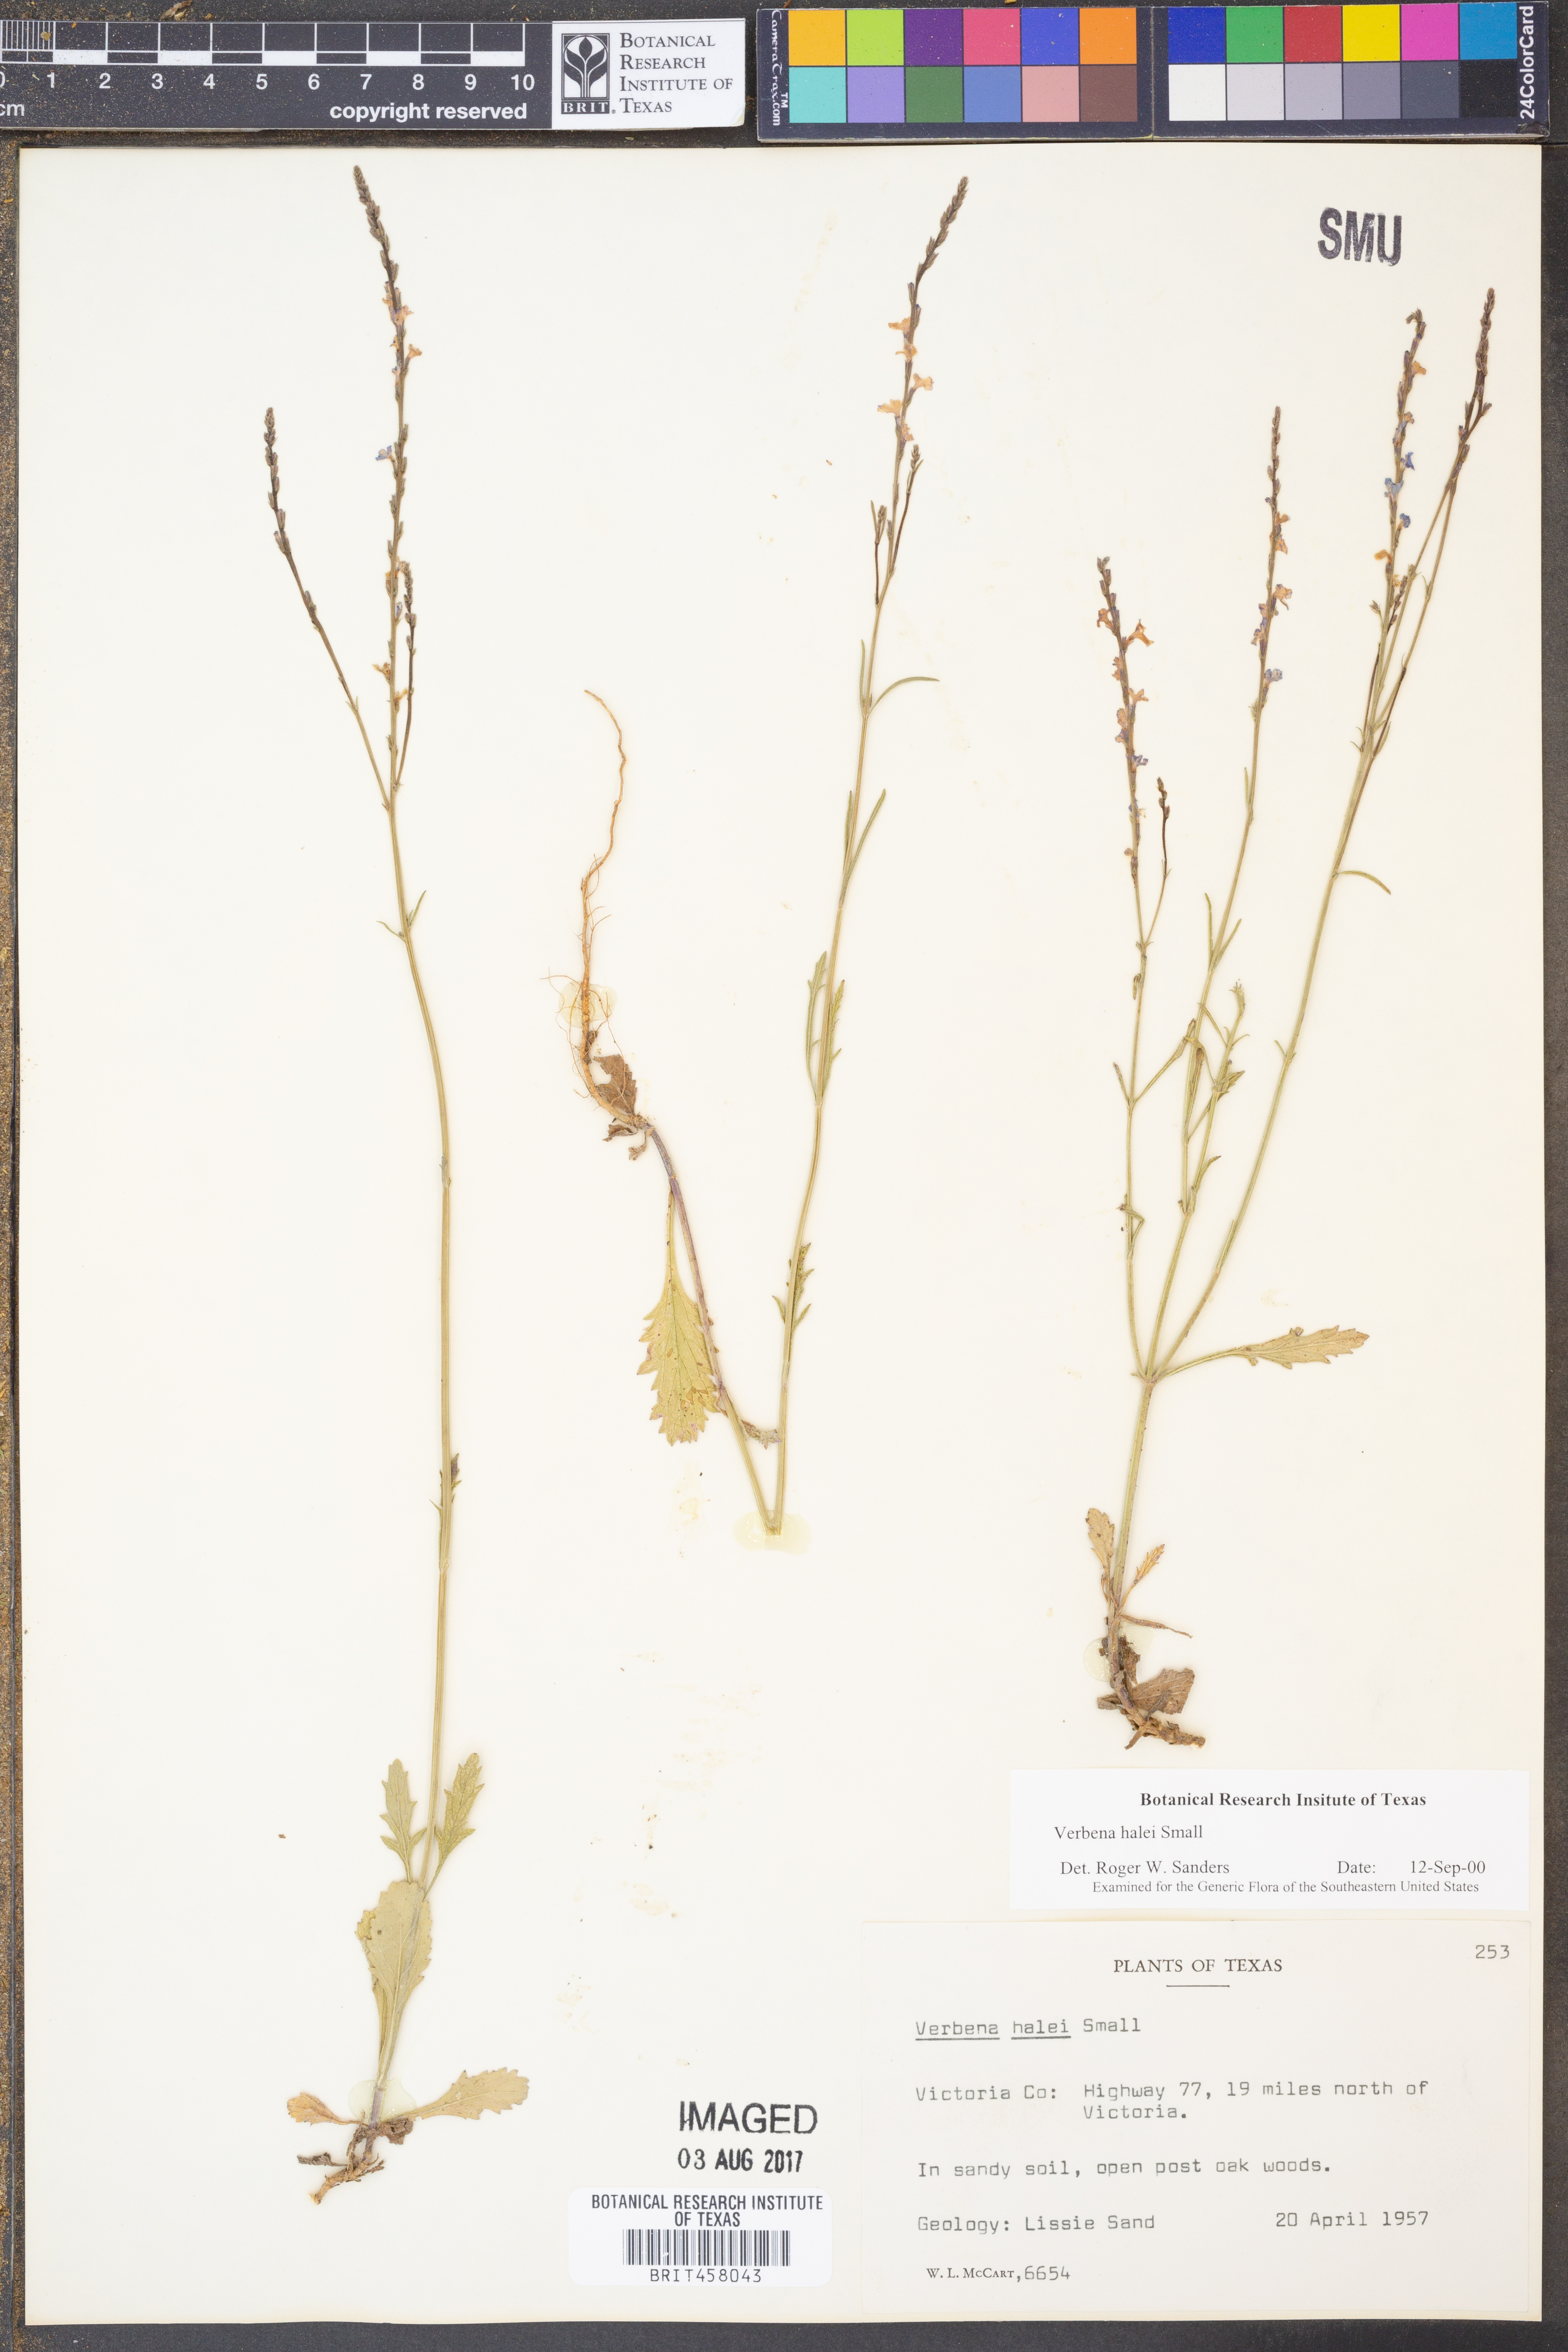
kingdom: Plantae
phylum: Tracheophyta
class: Magnoliopsida
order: Lamiales
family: Verbenaceae
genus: Verbena
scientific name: Verbena halei
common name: Texas vervain
